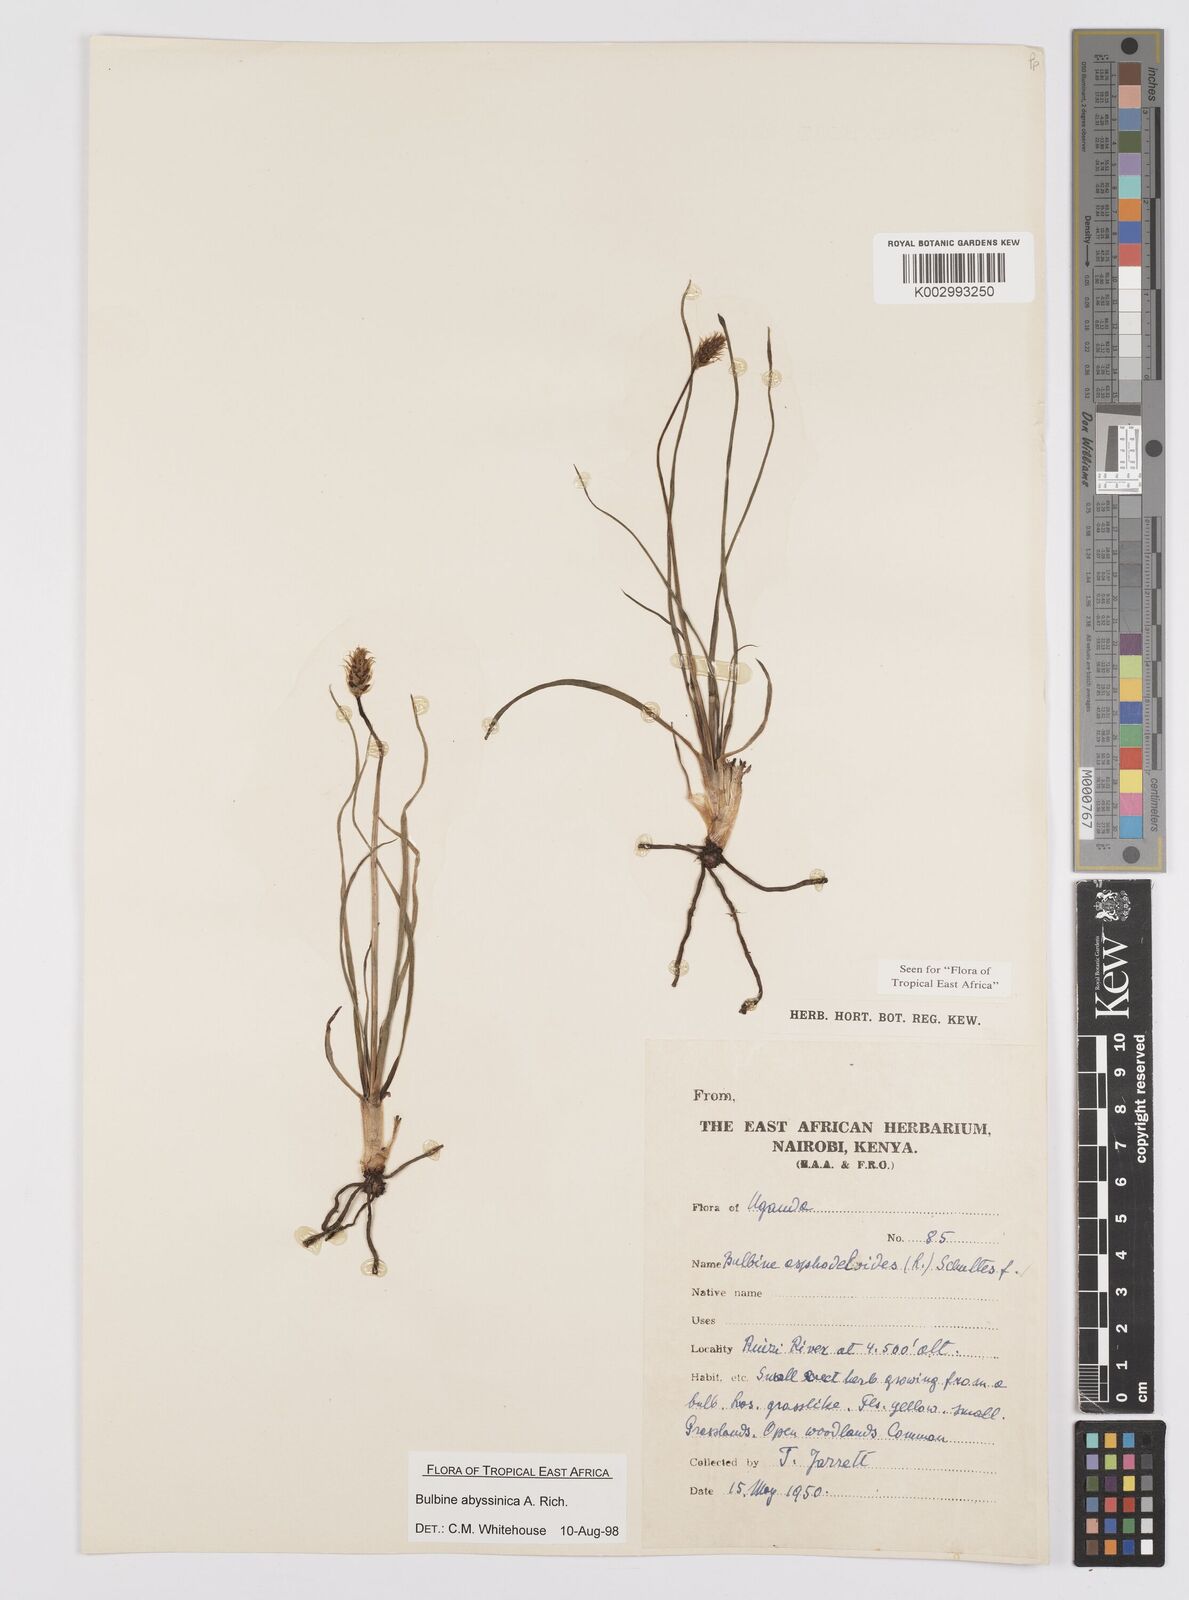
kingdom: Plantae
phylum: Tracheophyta
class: Liliopsida
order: Asparagales
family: Asphodelaceae
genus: Bulbine
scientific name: Bulbine abyssinica
